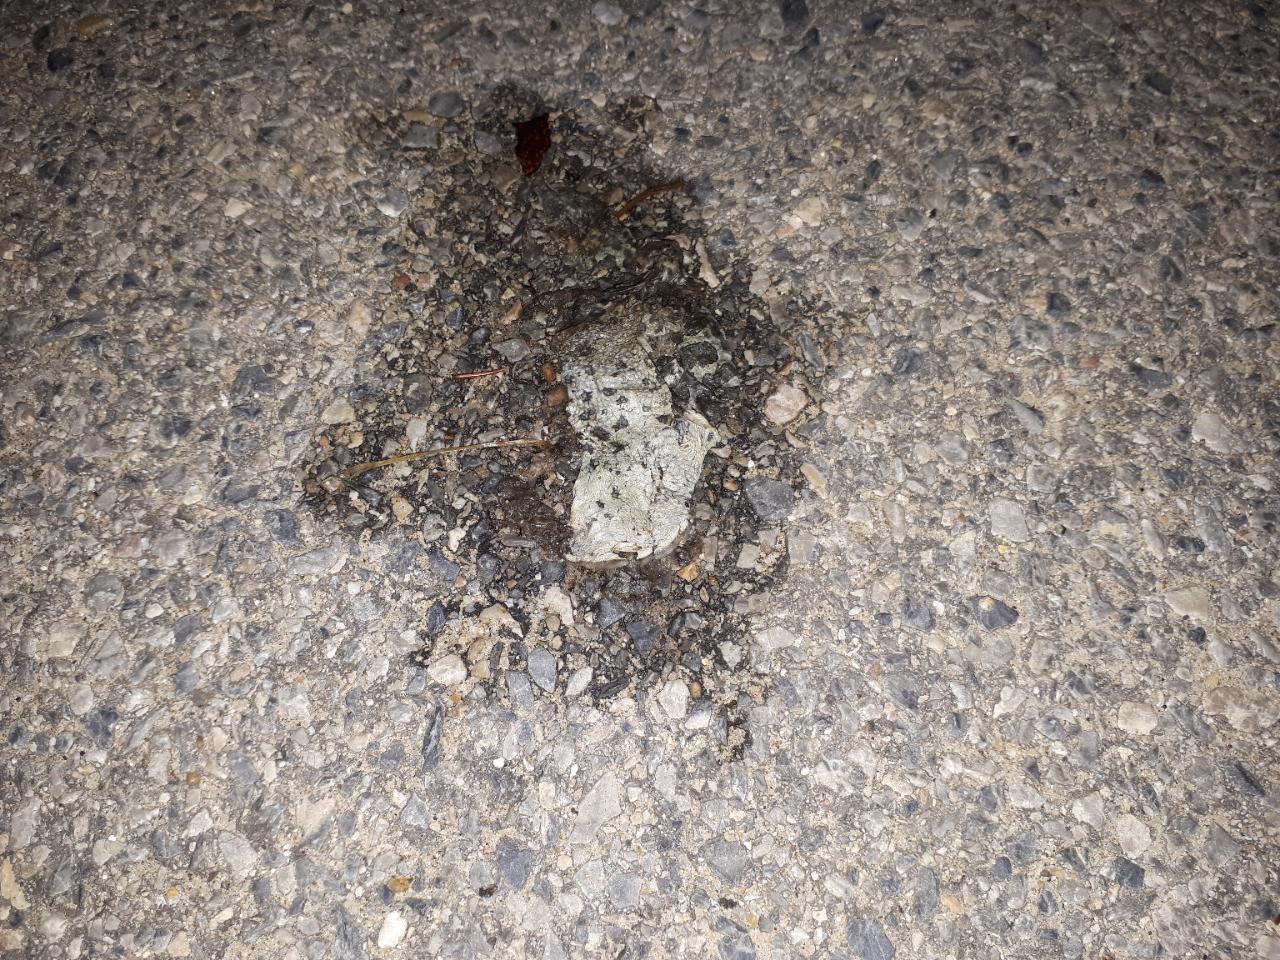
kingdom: Animalia
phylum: Chordata
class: Amphibia
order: Anura
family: Bufonidae
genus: Bufotes
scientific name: Bufotes viridis
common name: European green toad
